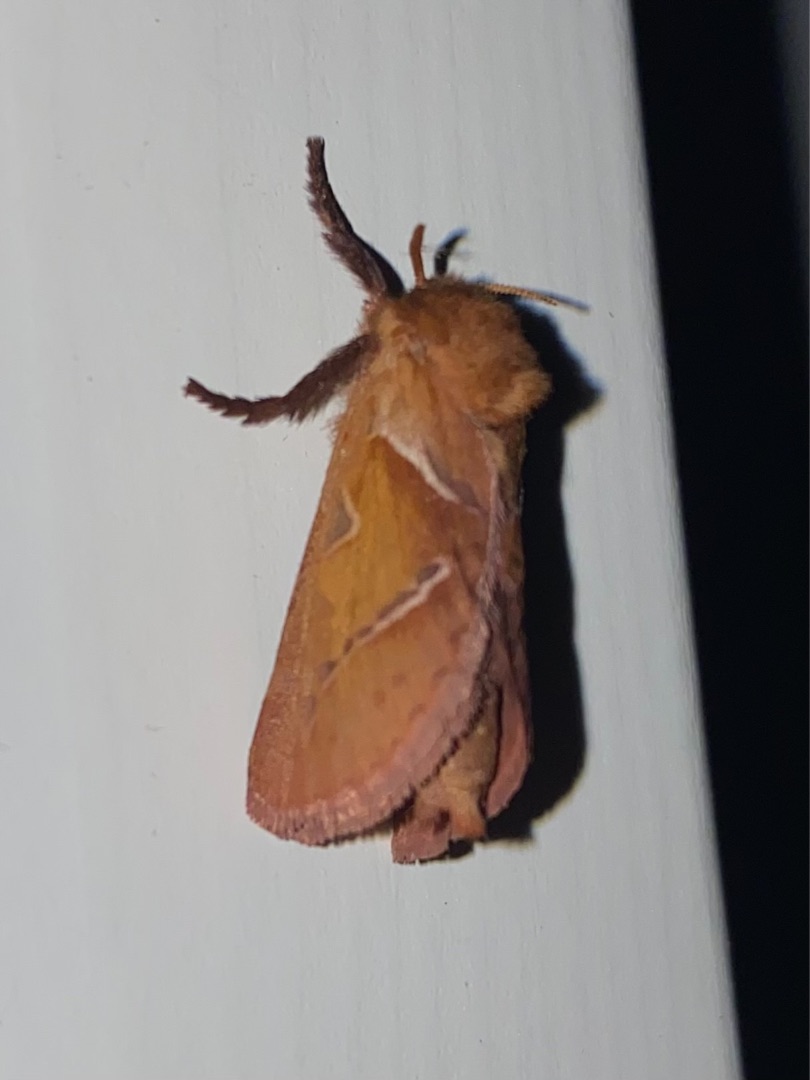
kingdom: Animalia
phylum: Arthropoda
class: Insecta
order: Lepidoptera
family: Hepialidae
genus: Triodia
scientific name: Triodia sylvina
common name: Skræpperodæder
